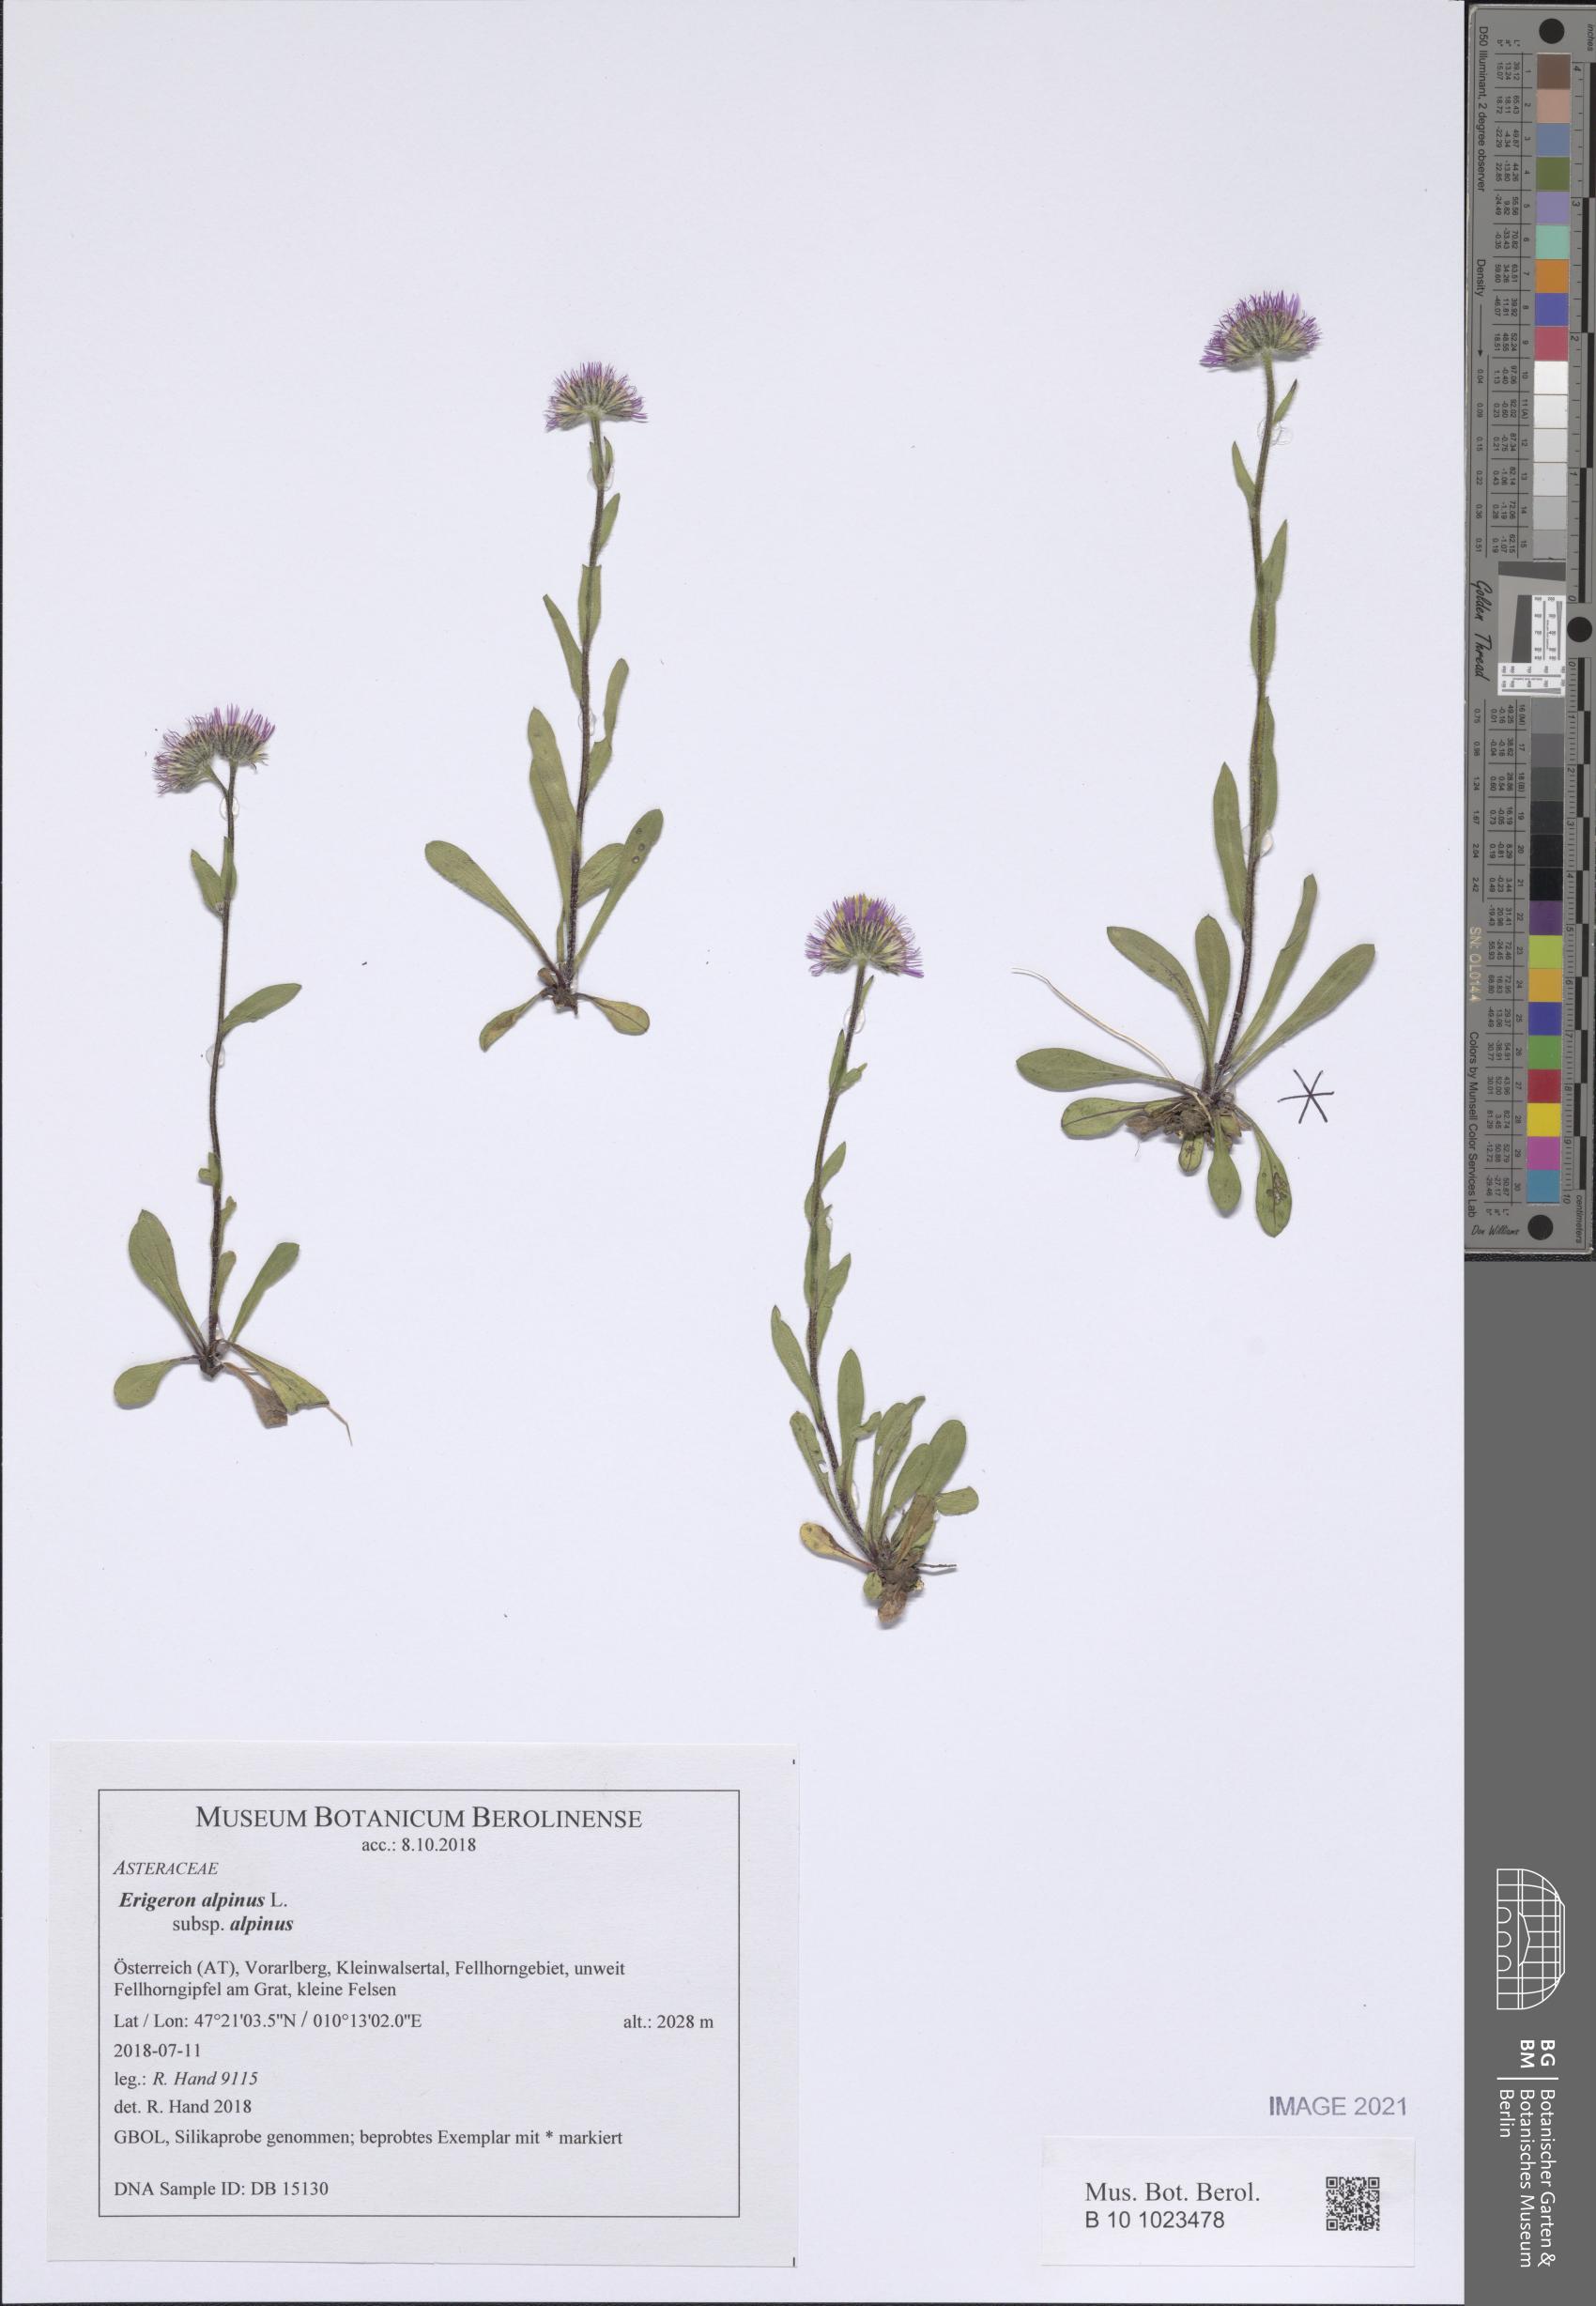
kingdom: Plantae
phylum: Tracheophyta
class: Magnoliopsida
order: Asterales
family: Asteraceae
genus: Erigeron
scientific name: Erigeron alpinus
